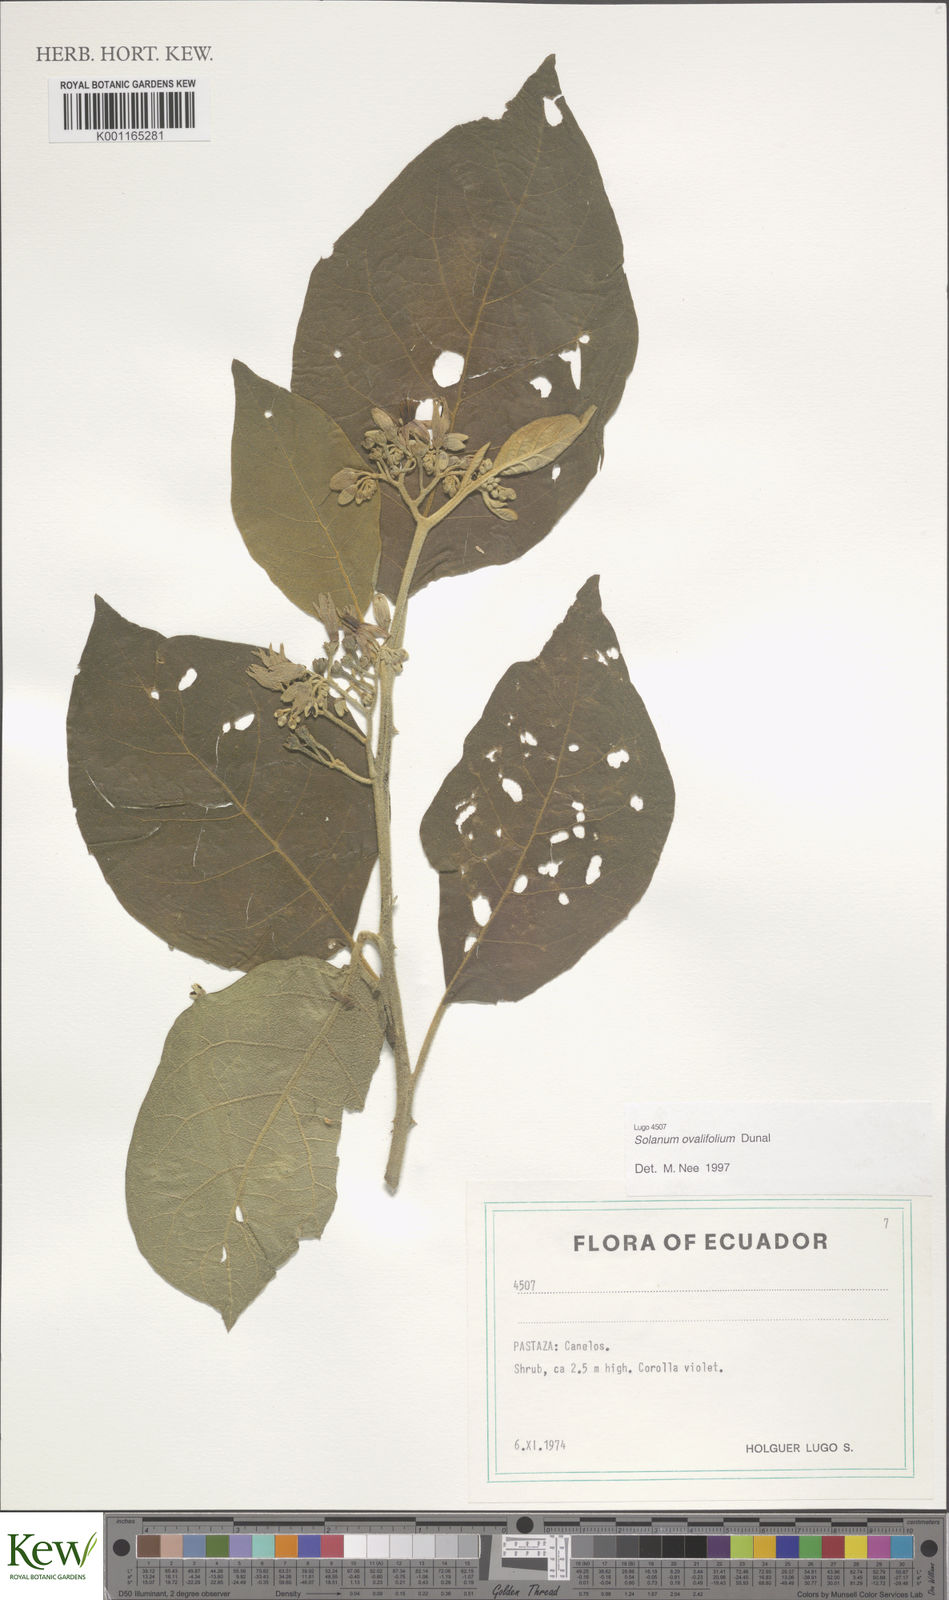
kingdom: Plantae
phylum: Tracheophyta
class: Magnoliopsida
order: Solanales
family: Solanaceae
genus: Solanum
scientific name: Solanum ovalifolium
